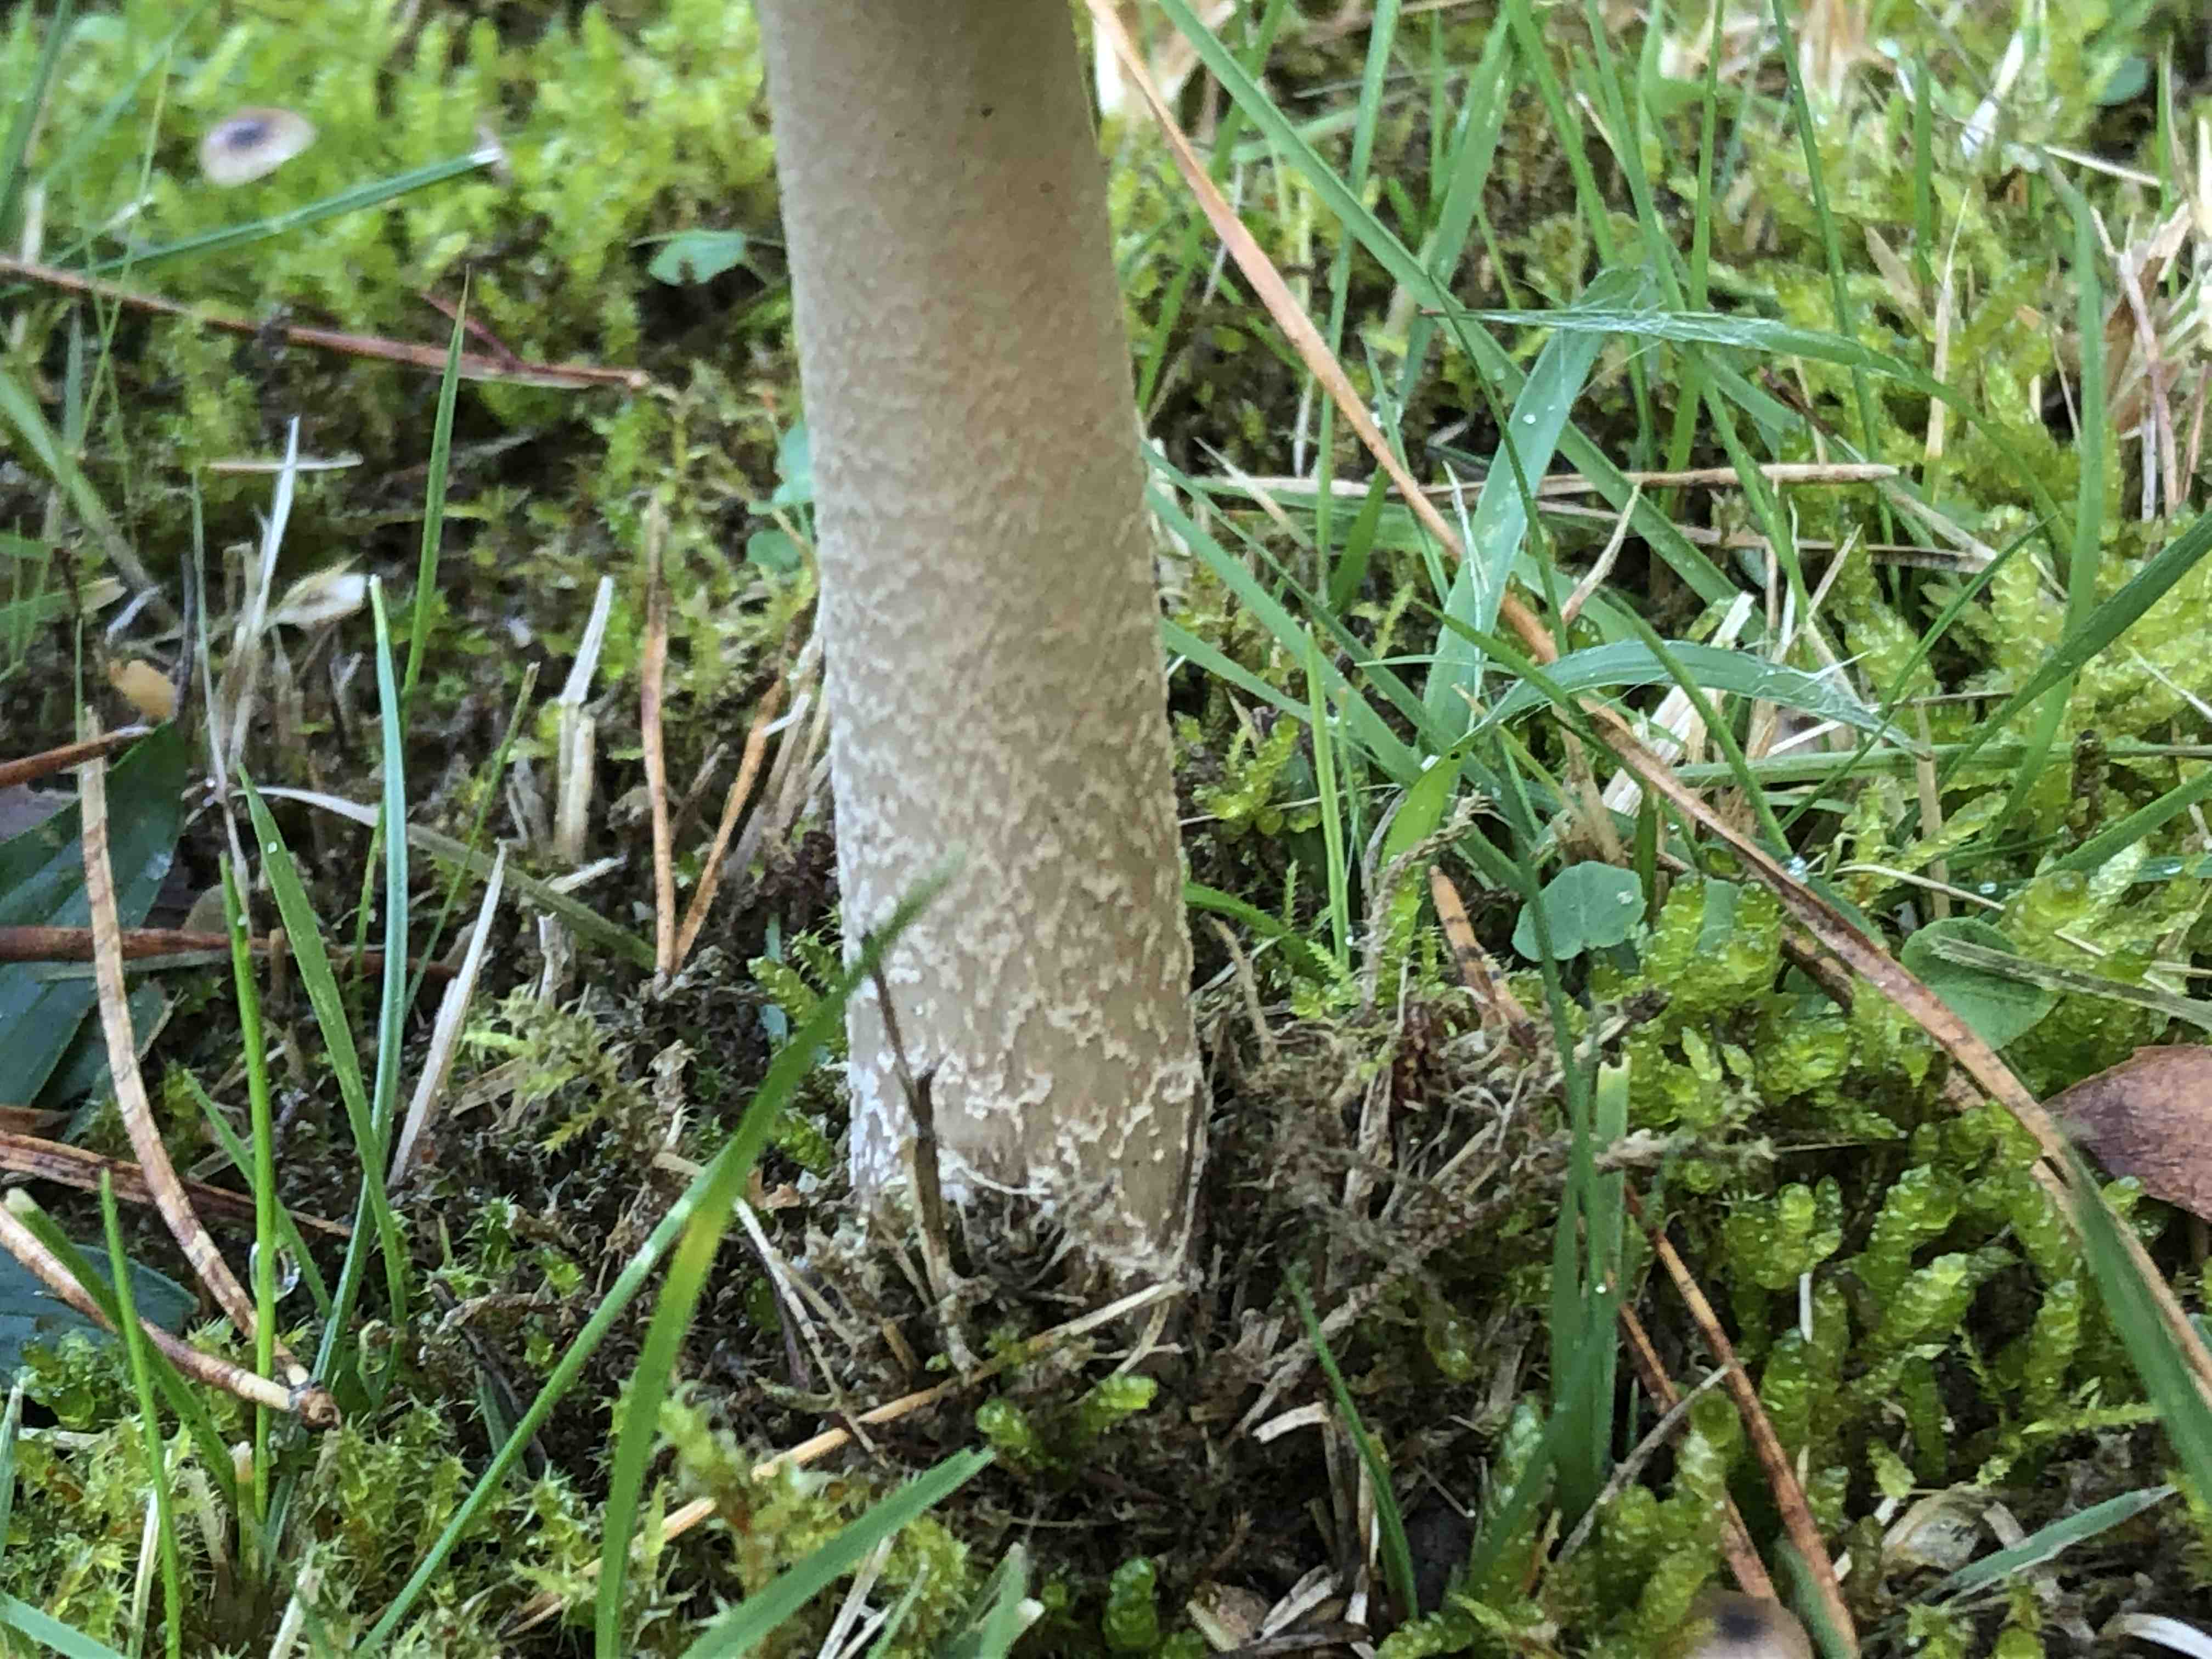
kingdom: Fungi
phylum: Basidiomycota
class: Agaricomycetes
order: Agaricales
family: Amanitaceae
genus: Amanita
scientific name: Amanita submembranacea
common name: gråspættet kam-fluesvamp
